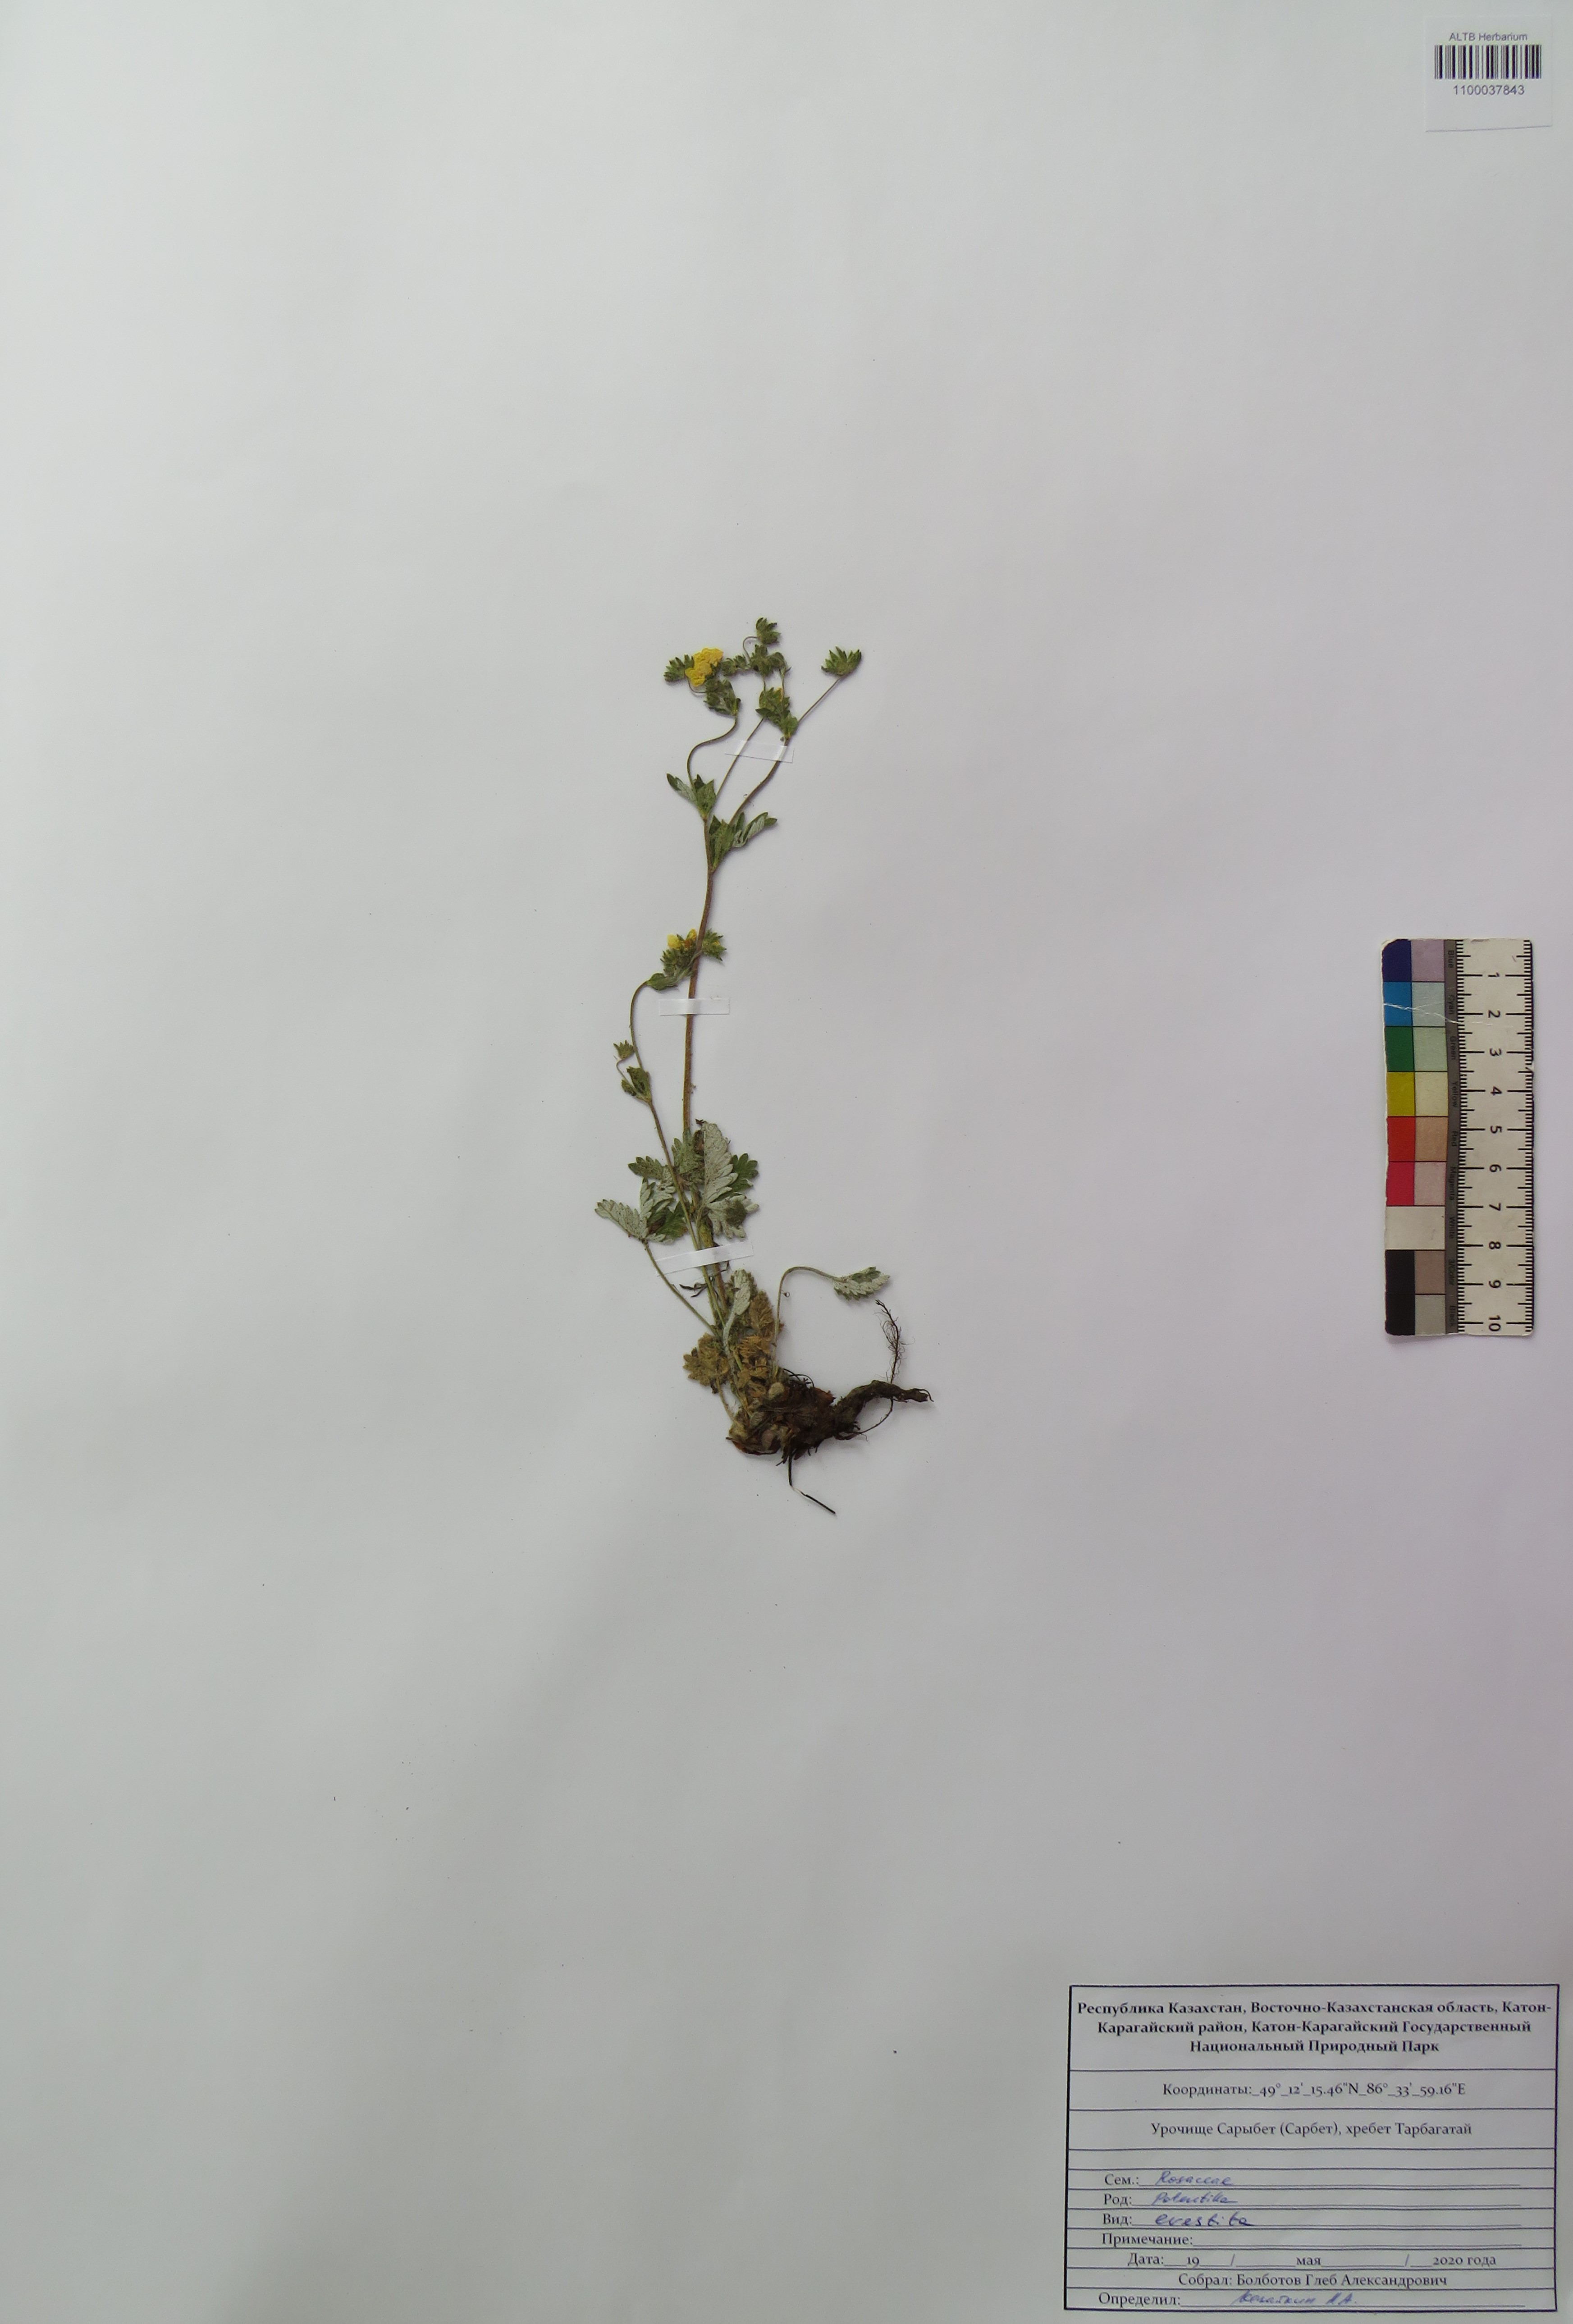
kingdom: Plantae
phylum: Tracheophyta
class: Magnoliopsida
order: Rosales
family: Rosaceae
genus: Potentilla
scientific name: Potentilla evestita
